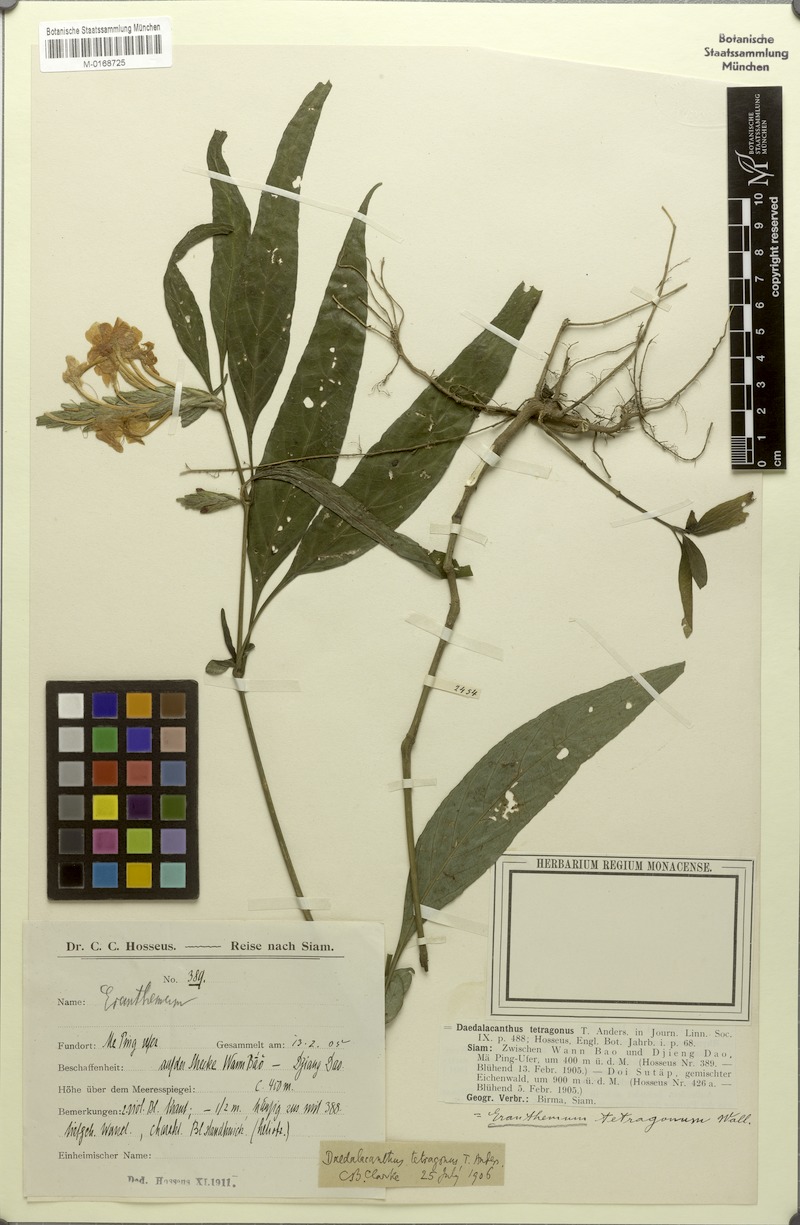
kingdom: Plantae
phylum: Tracheophyta
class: Magnoliopsida
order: Lamiales
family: Acanthaceae
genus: Eranthemum
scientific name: Eranthemum tetragonum
